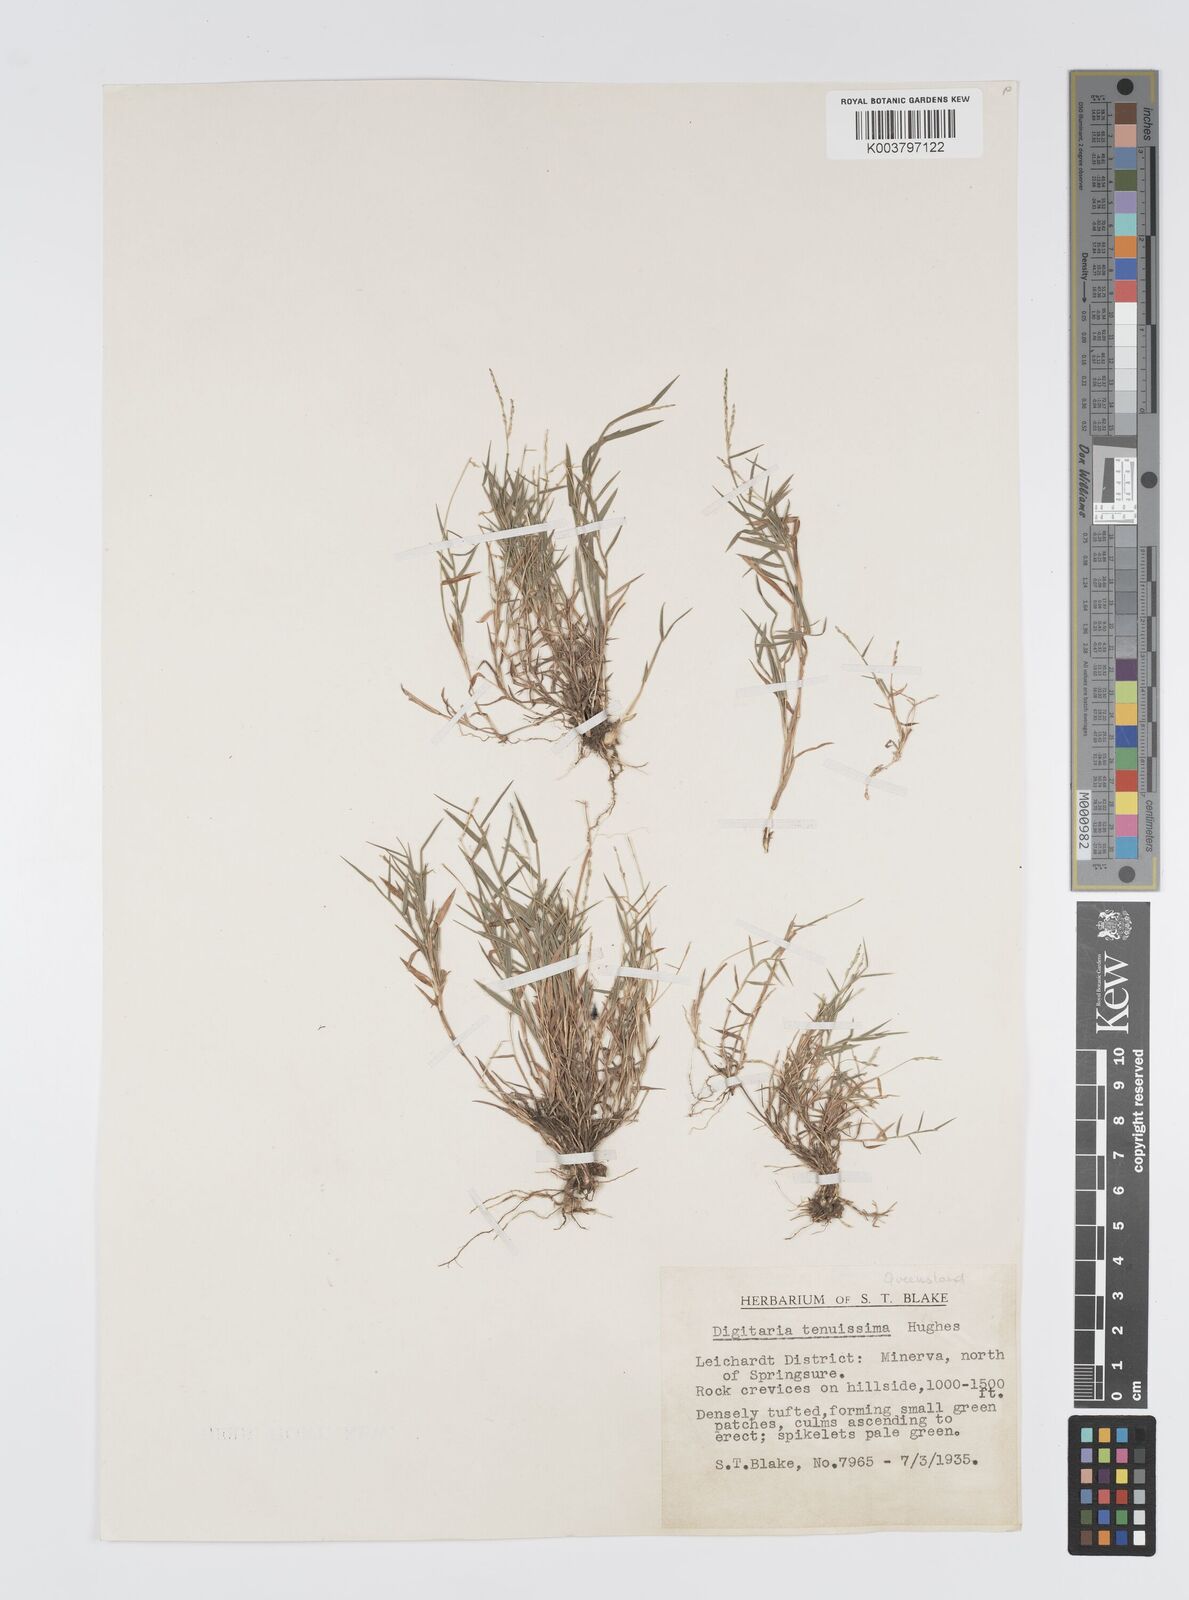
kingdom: Plantae
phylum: Tracheophyta
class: Liliopsida
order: Poales
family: Poaceae
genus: Digitaria
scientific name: Digitaria diffusa
